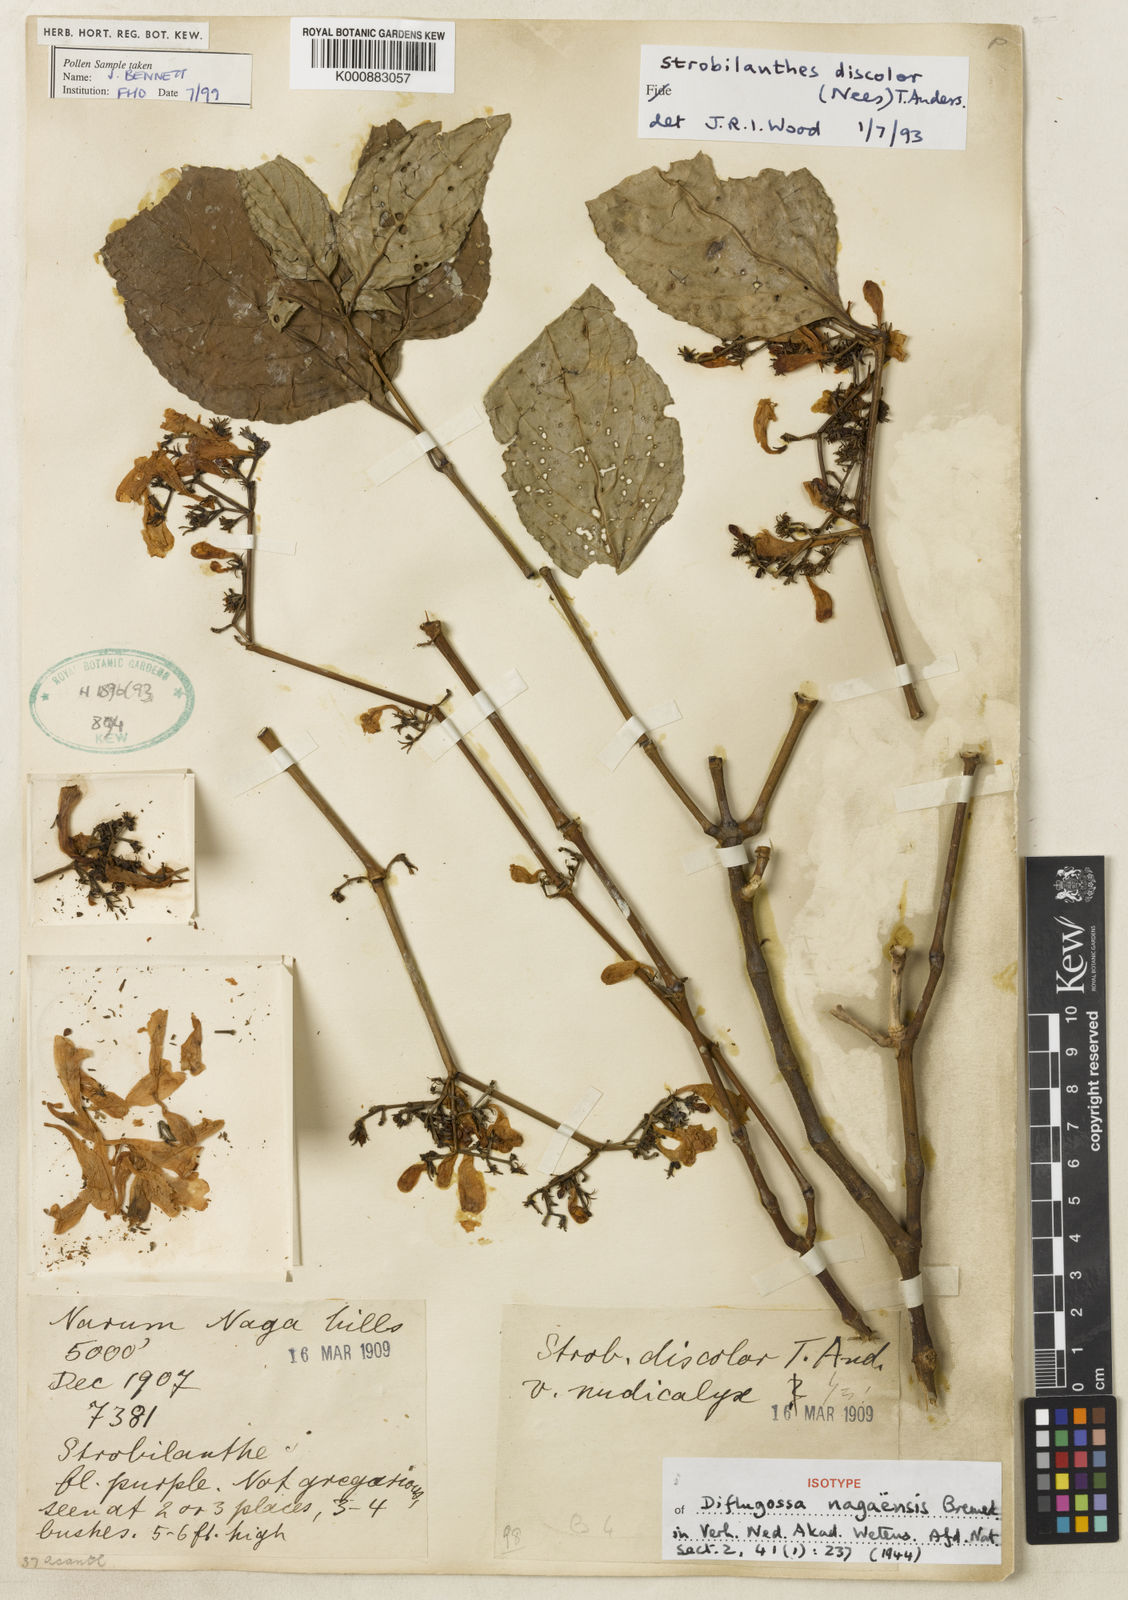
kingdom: Plantae
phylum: Tracheophyta
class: Magnoliopsida
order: Lamiales
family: Acanthaceae
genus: Strobilanthes
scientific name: Strobilanthes discolor
